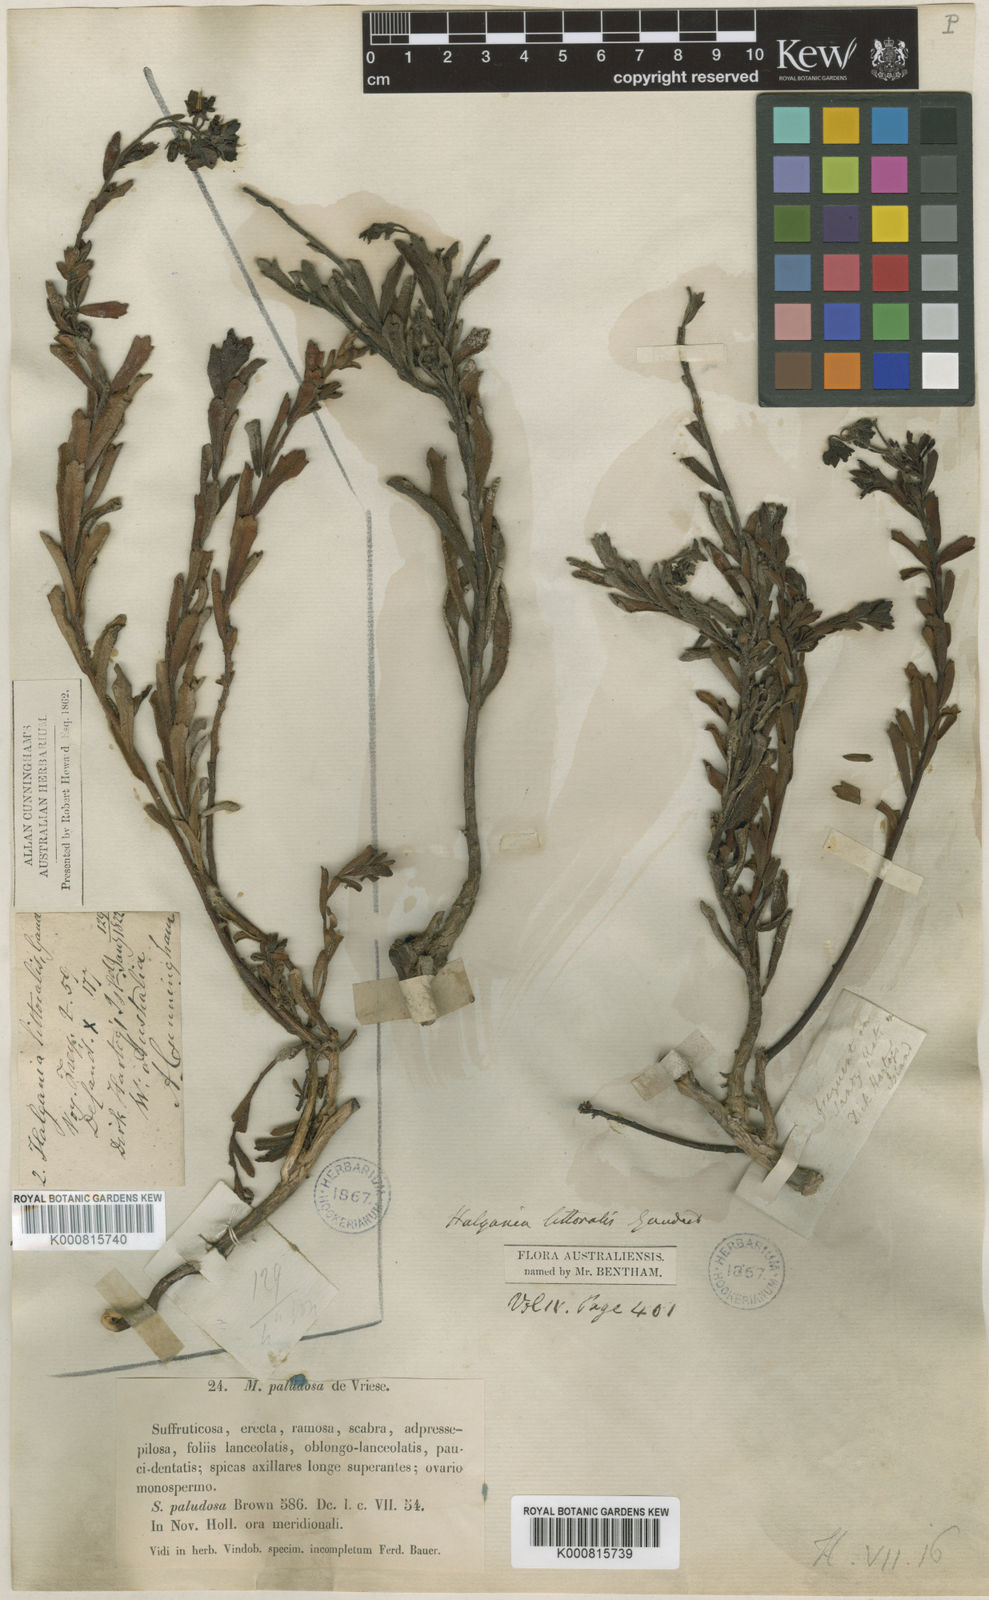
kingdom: Plantae
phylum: Tracheophyta
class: Magnoliopsida
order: Boraginales
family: Ehretiaceae
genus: Halgania
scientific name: Halgania littoralis
